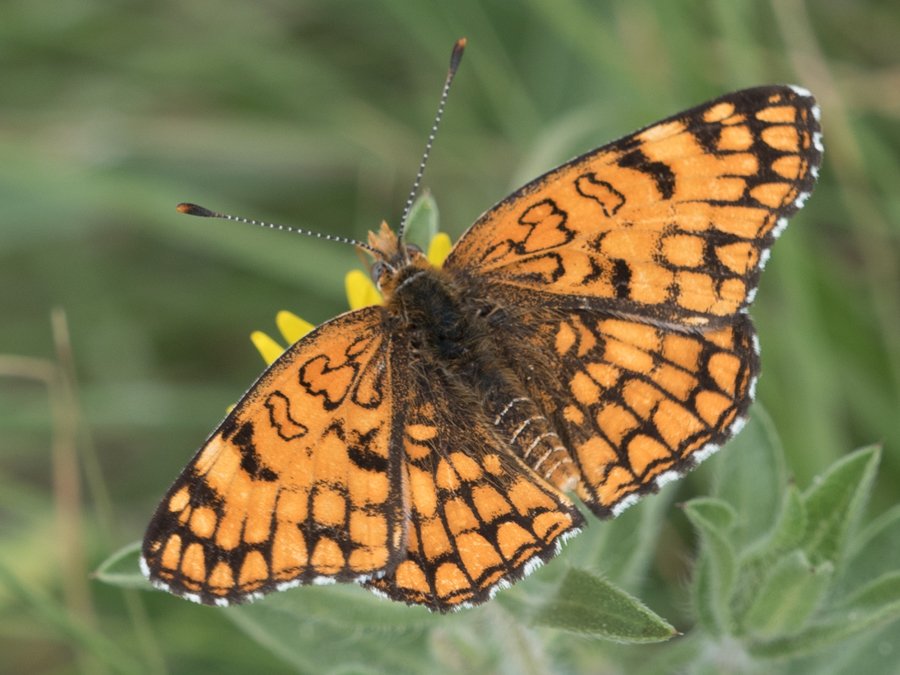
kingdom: Animalia
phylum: Arthropoda
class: Insecta
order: Lepidoptera
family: Nymphalidae
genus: Chlosyne
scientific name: Chlosyne acastus
